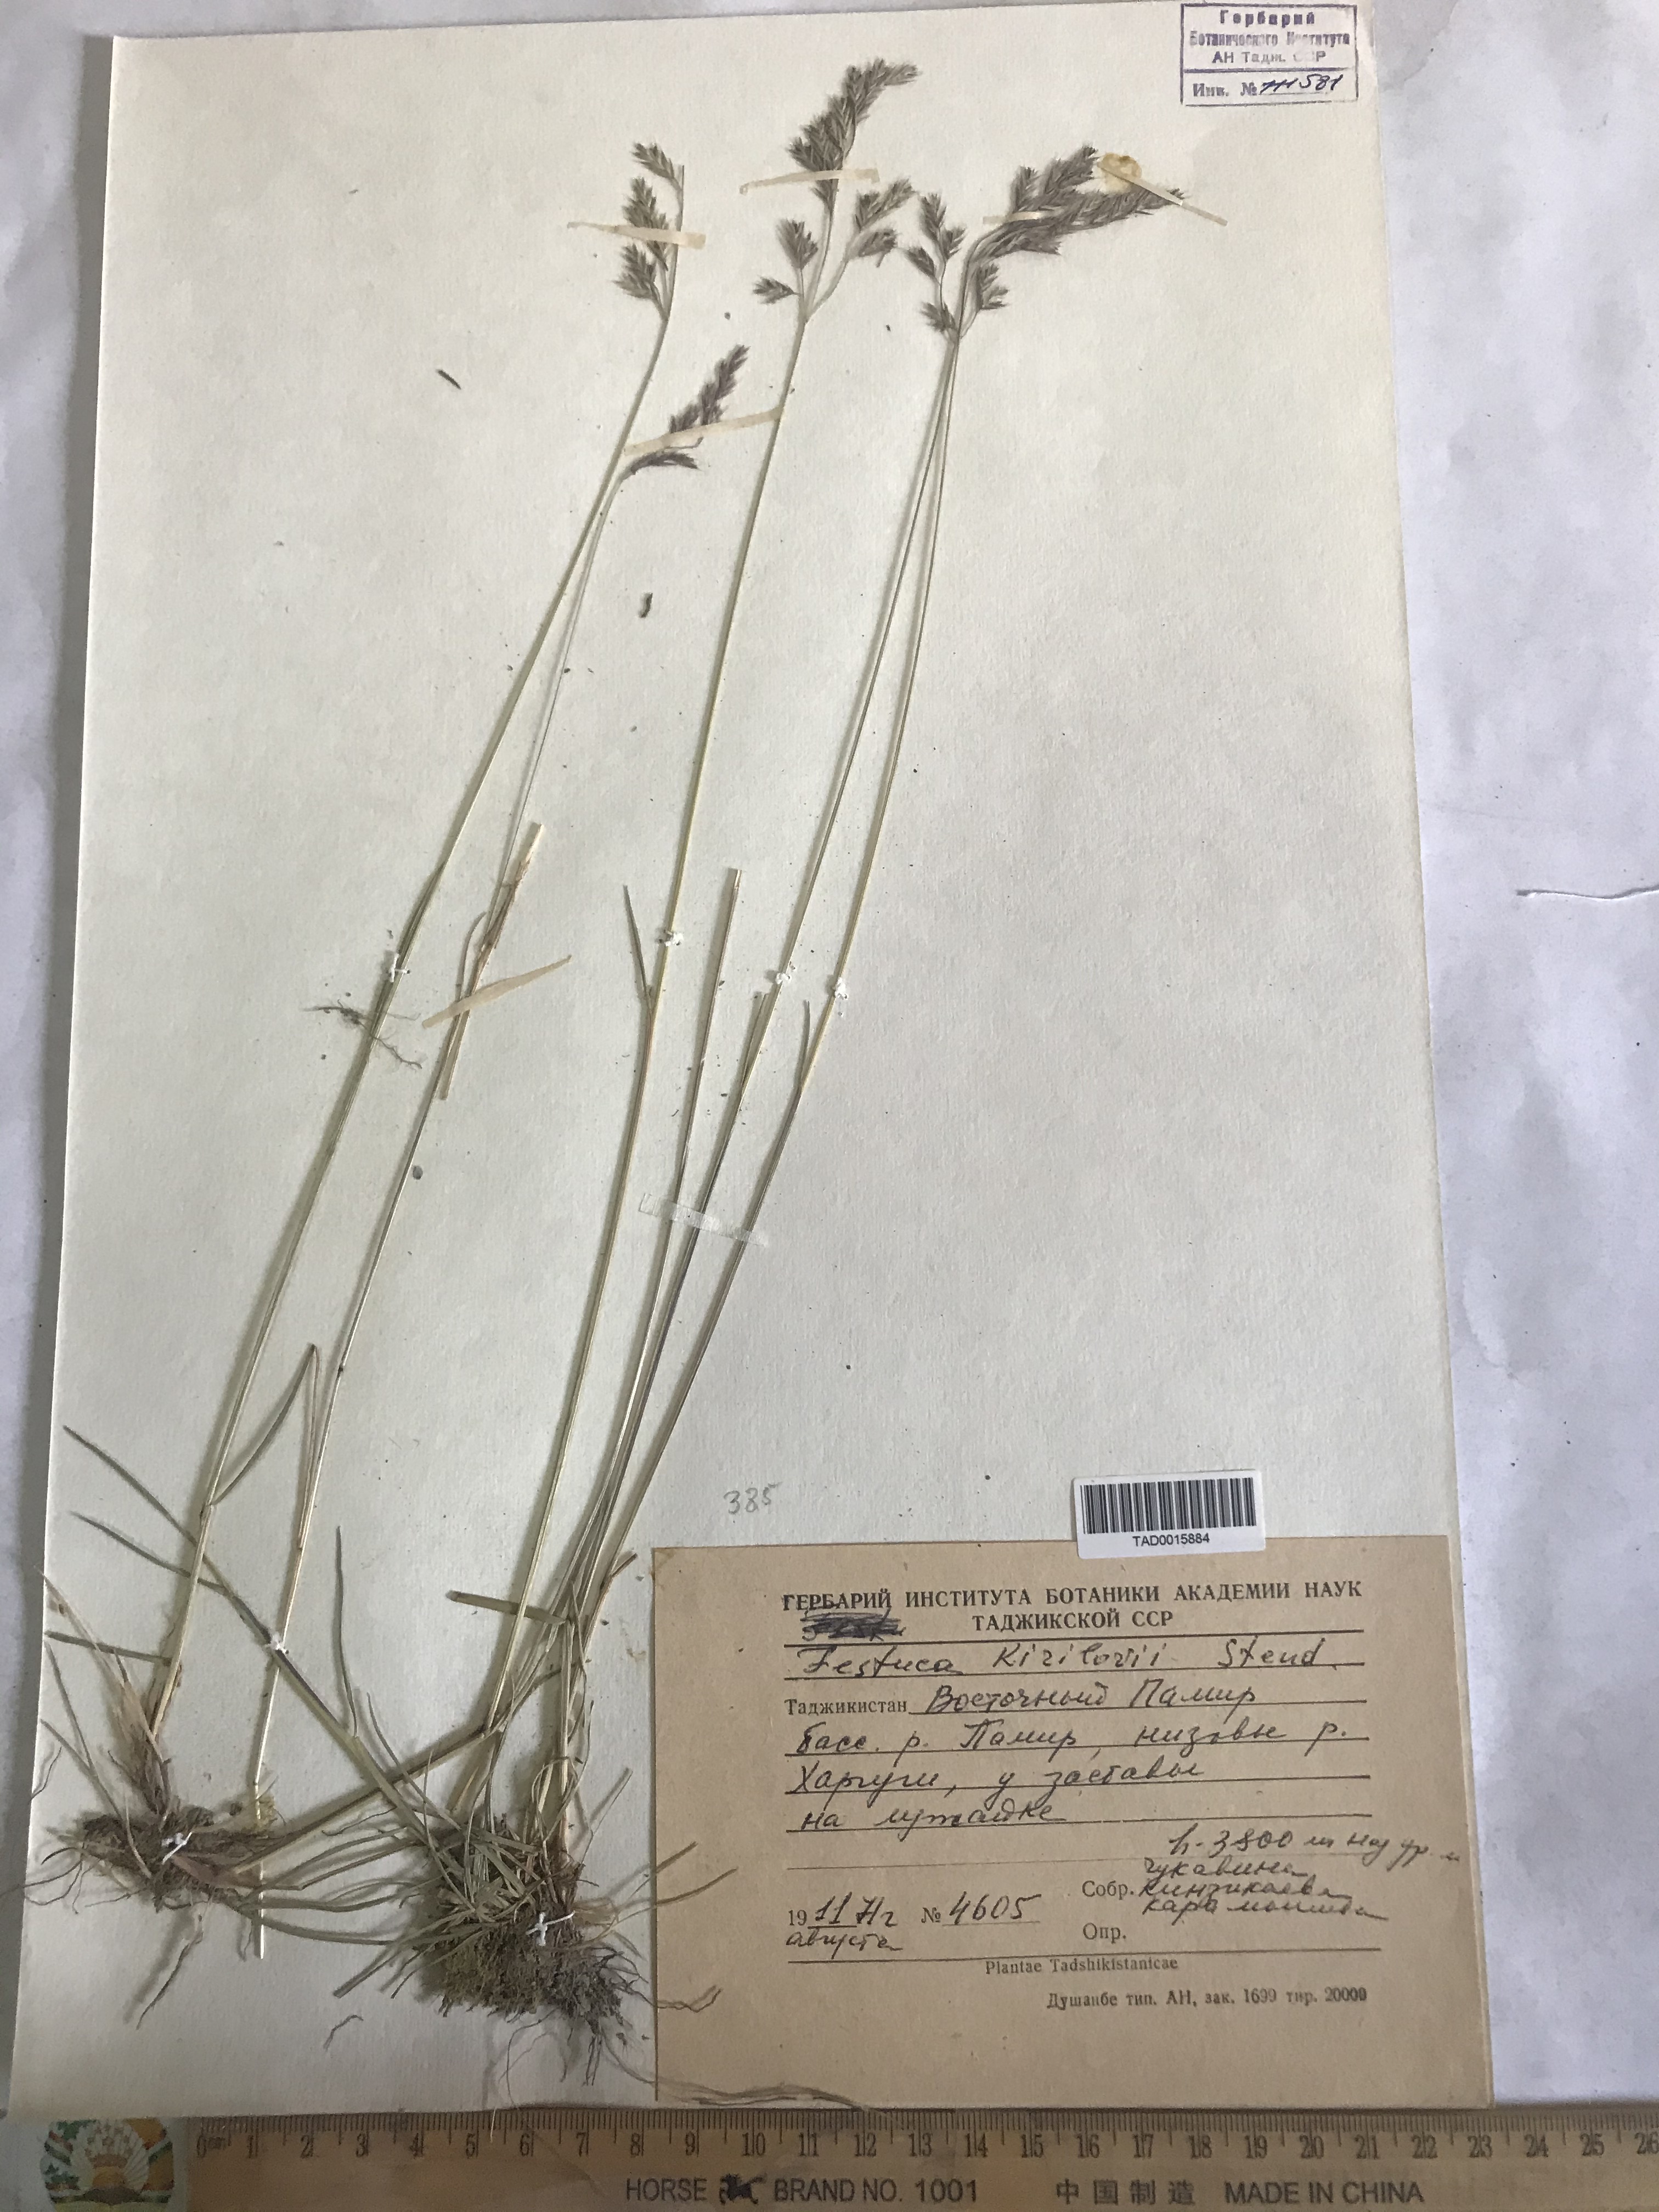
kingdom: Plantae
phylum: Tracheophyta
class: Liliopsida
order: Poales
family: Poaceae
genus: Festuca
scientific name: Festuca rubra
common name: Red fescue
